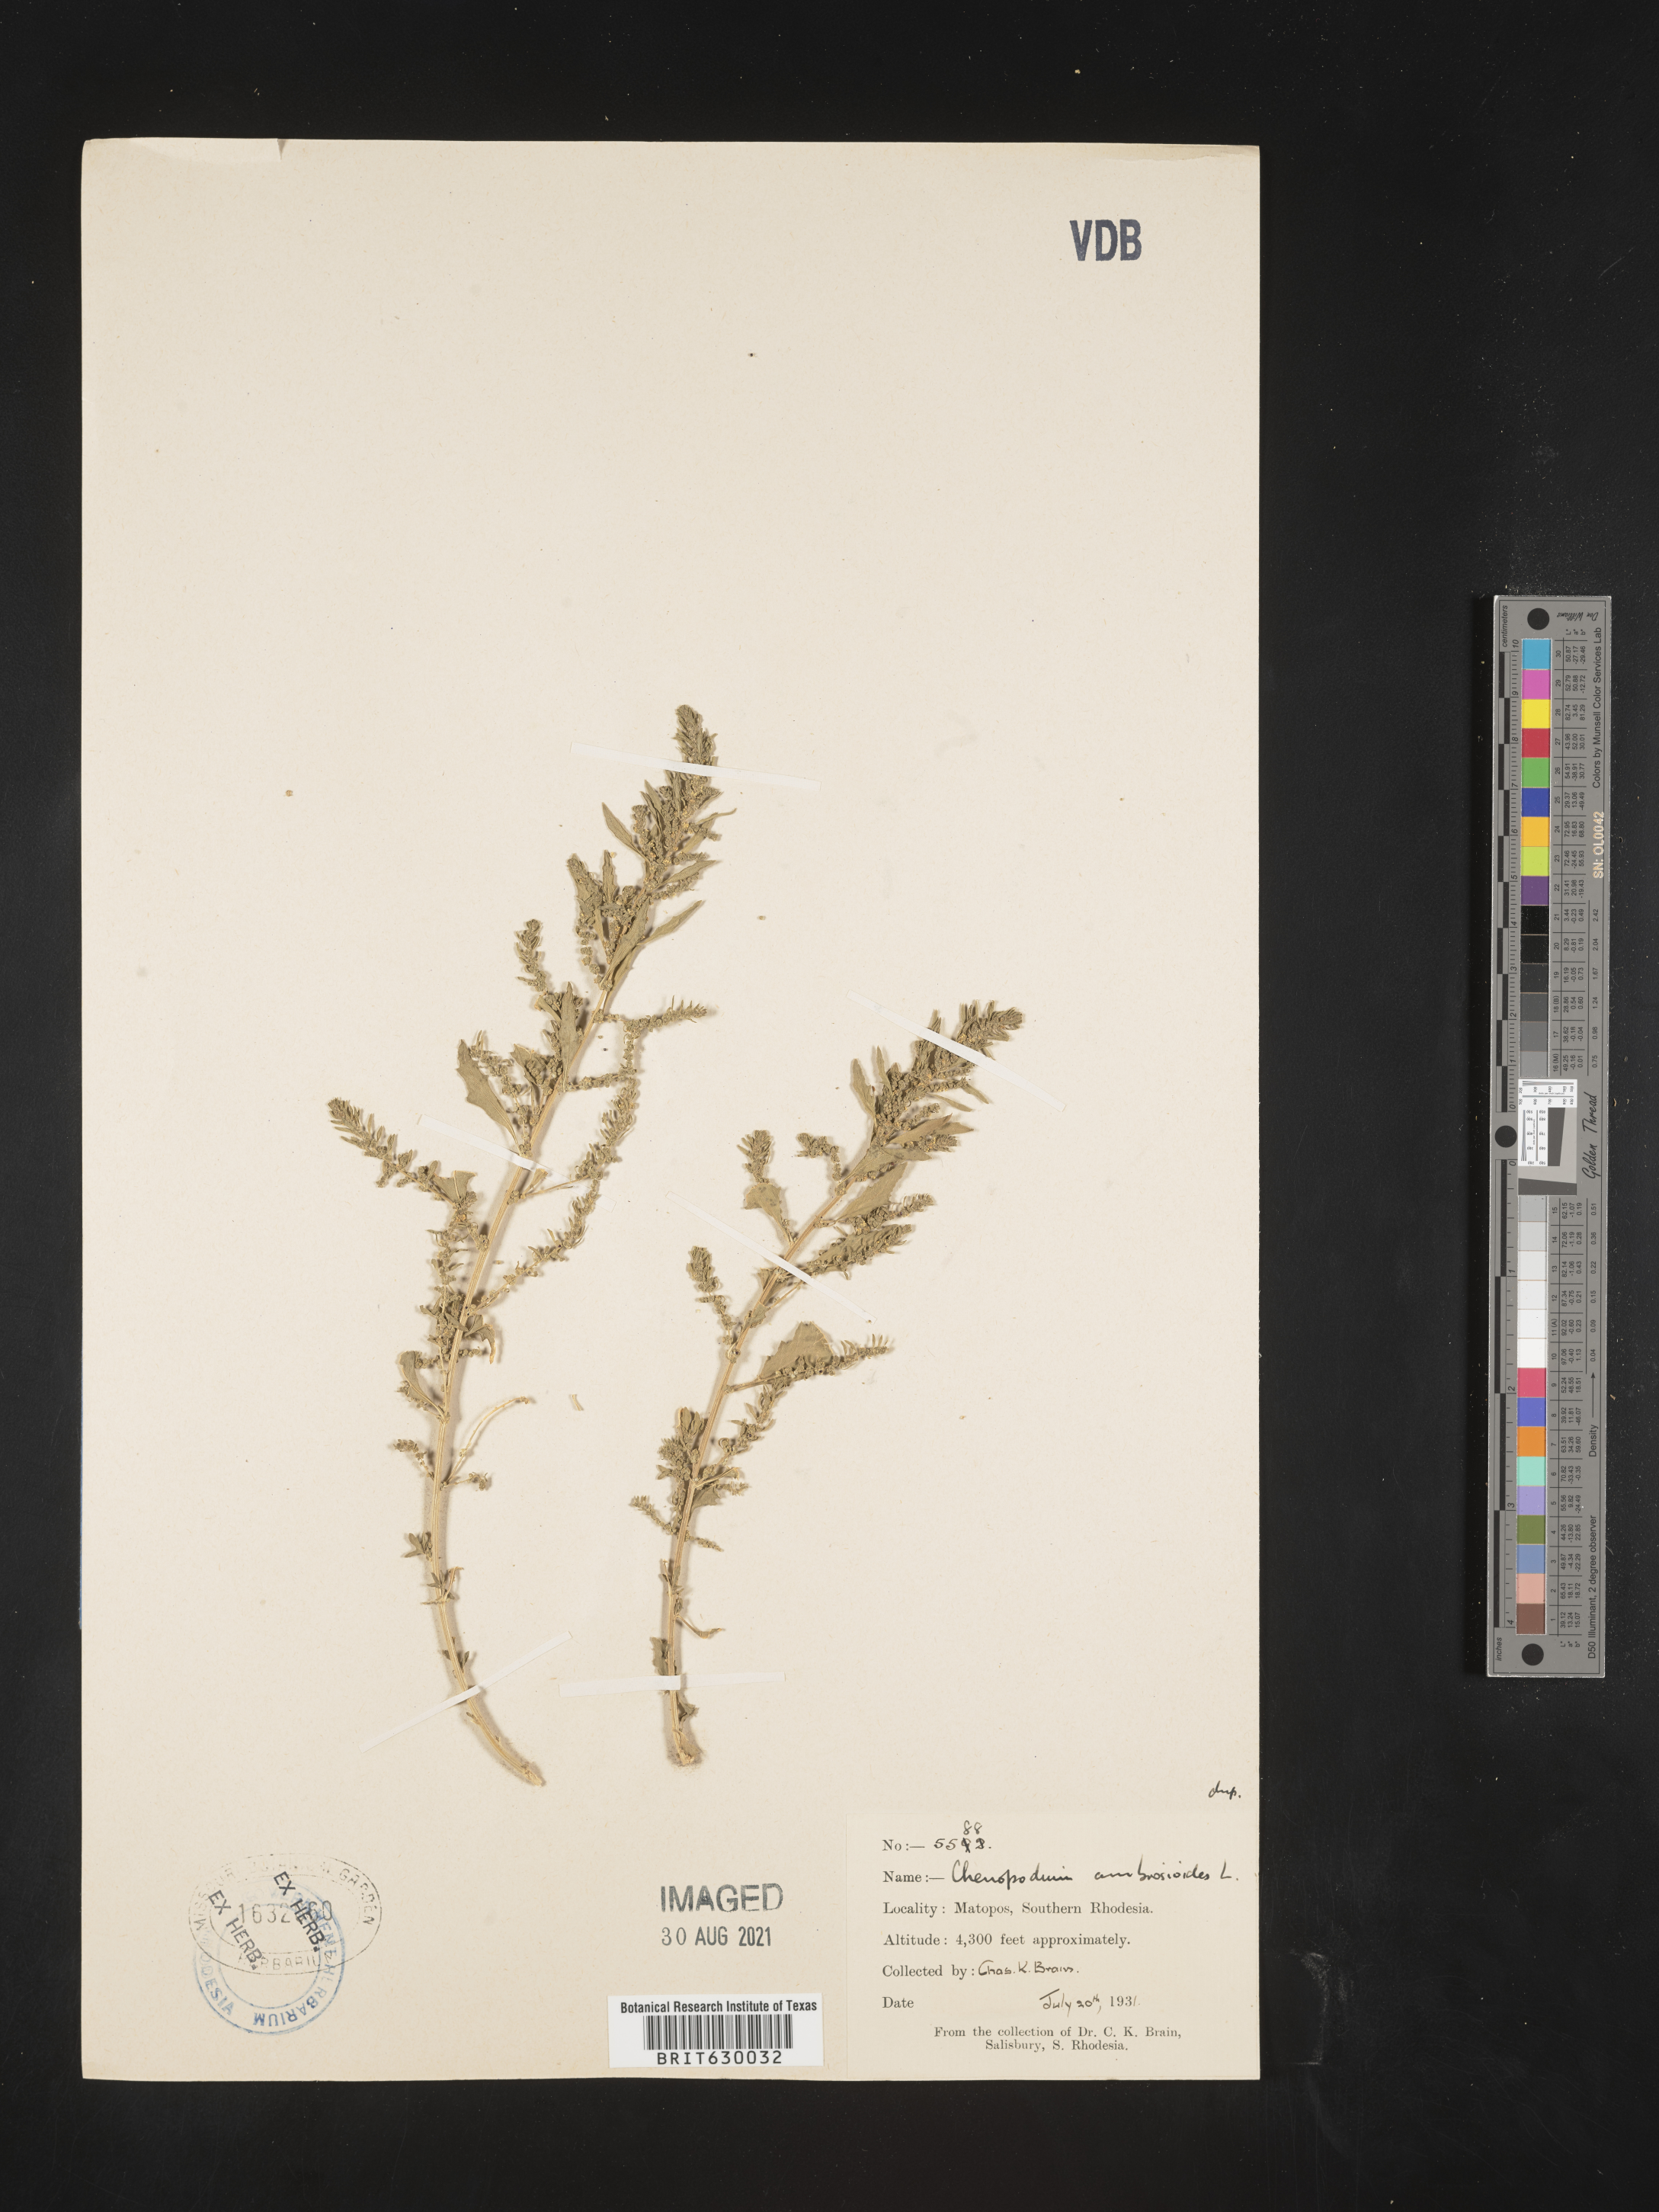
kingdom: Plantae
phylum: Tracheophyta
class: Magnoliopsida
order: Caryophyllales
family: Amaranthaceae
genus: Dysphania
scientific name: Dysphania ambrosioides
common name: Wormseed
